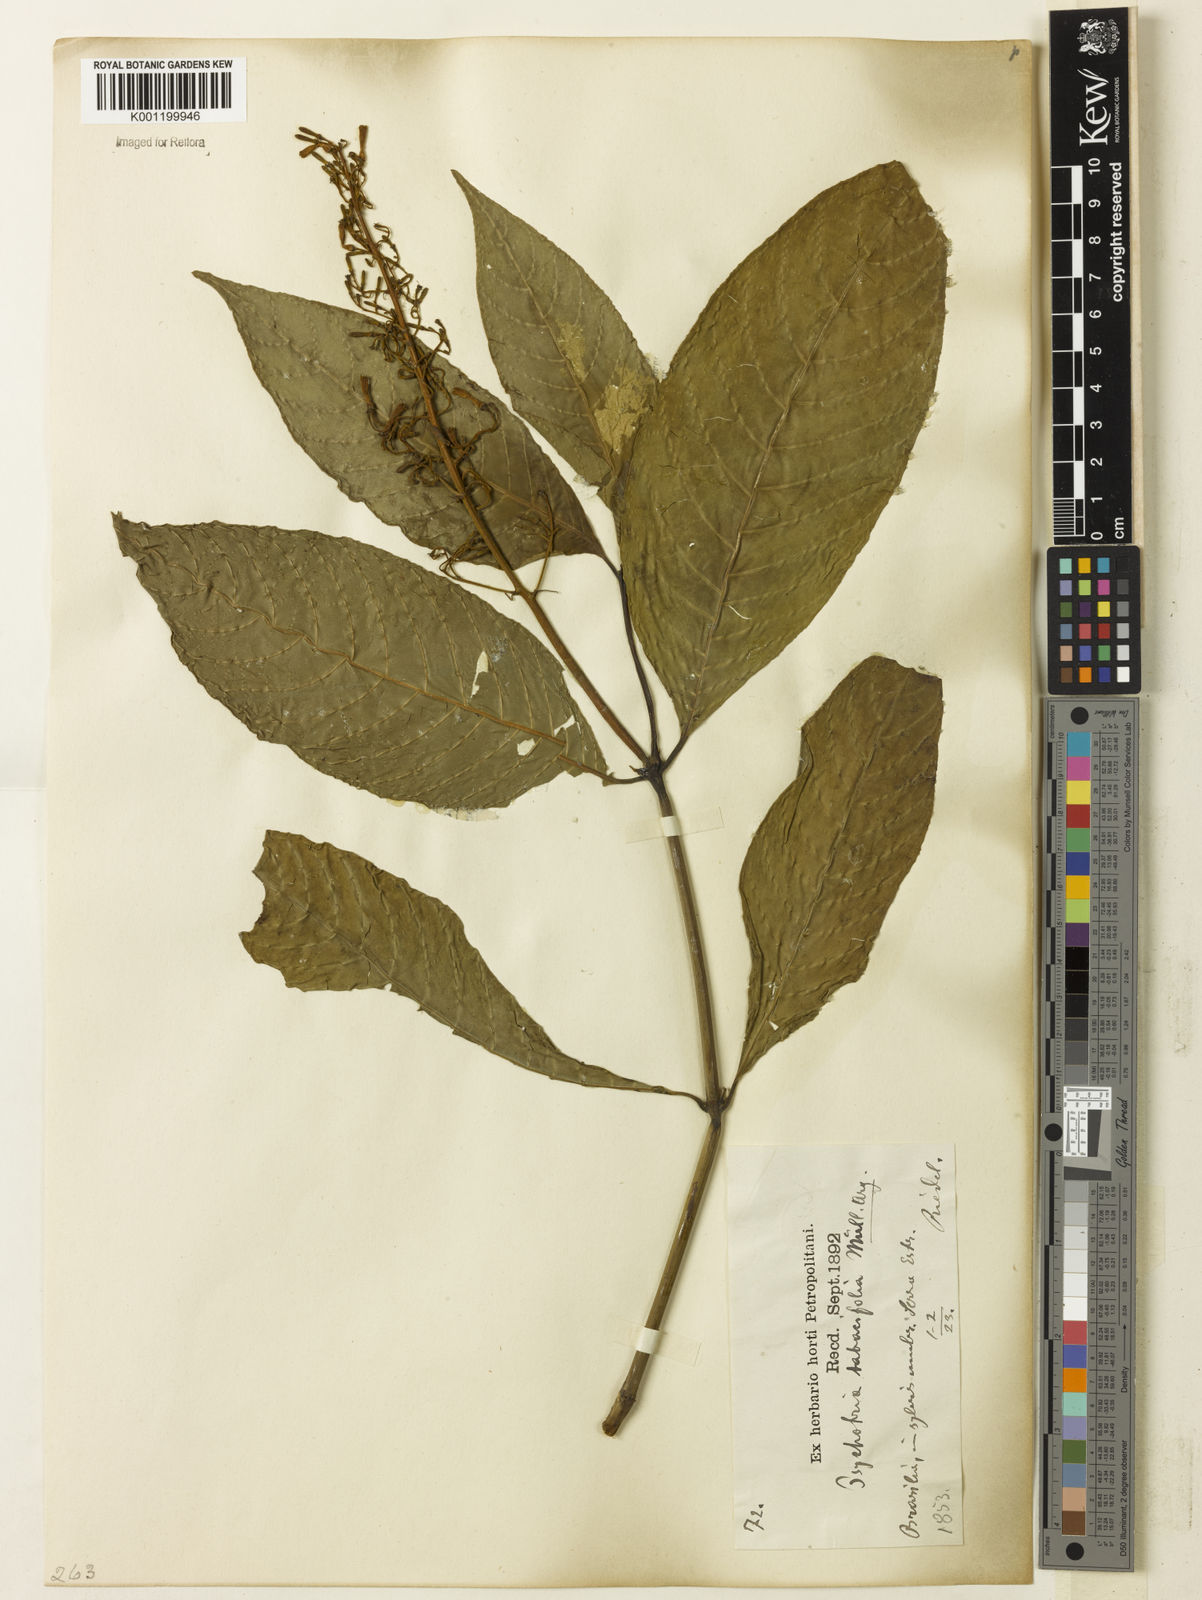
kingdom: Plantae
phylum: Tracheophyta
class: Magnoliopsida
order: Gentianales
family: Rubiaceae
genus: Palicourea
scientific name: Palicourea macrobotrys
